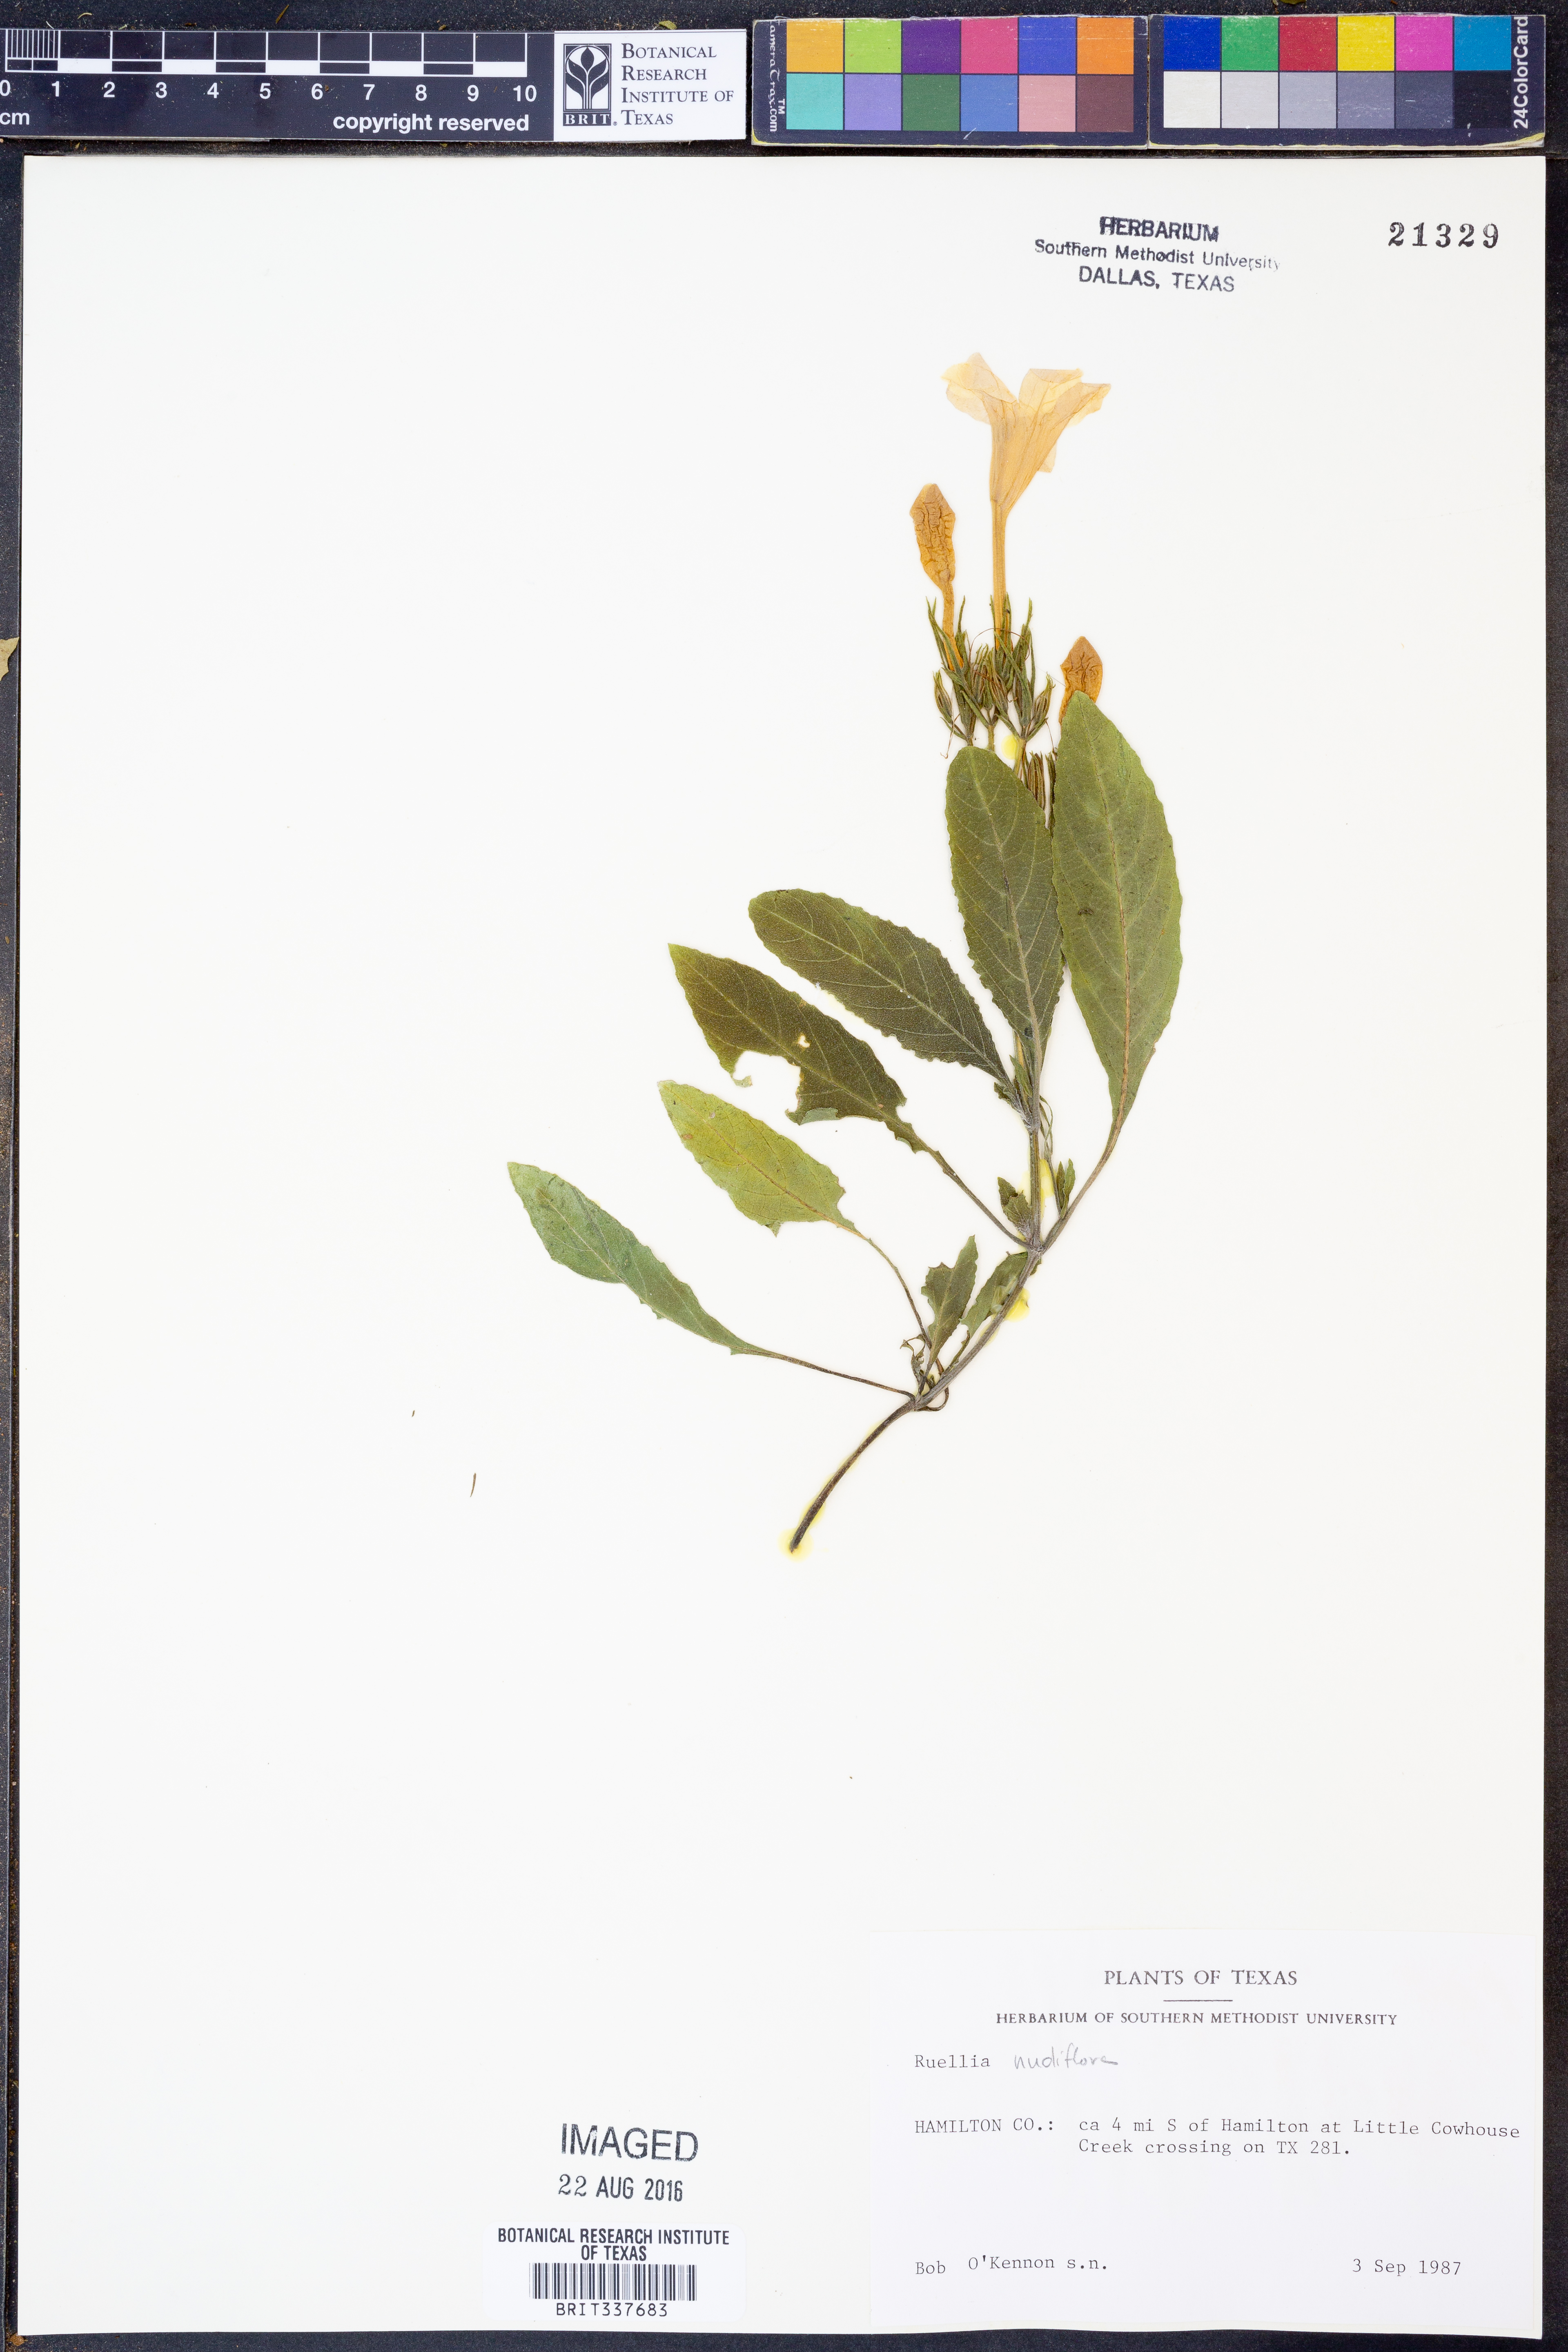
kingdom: Plantae
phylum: Tracheophyta
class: Magnoliopsida
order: Lamiales
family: Acanthaceae
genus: Ruellia
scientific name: Ruellia ciliatiflora
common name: Hairyflower wild petunia
